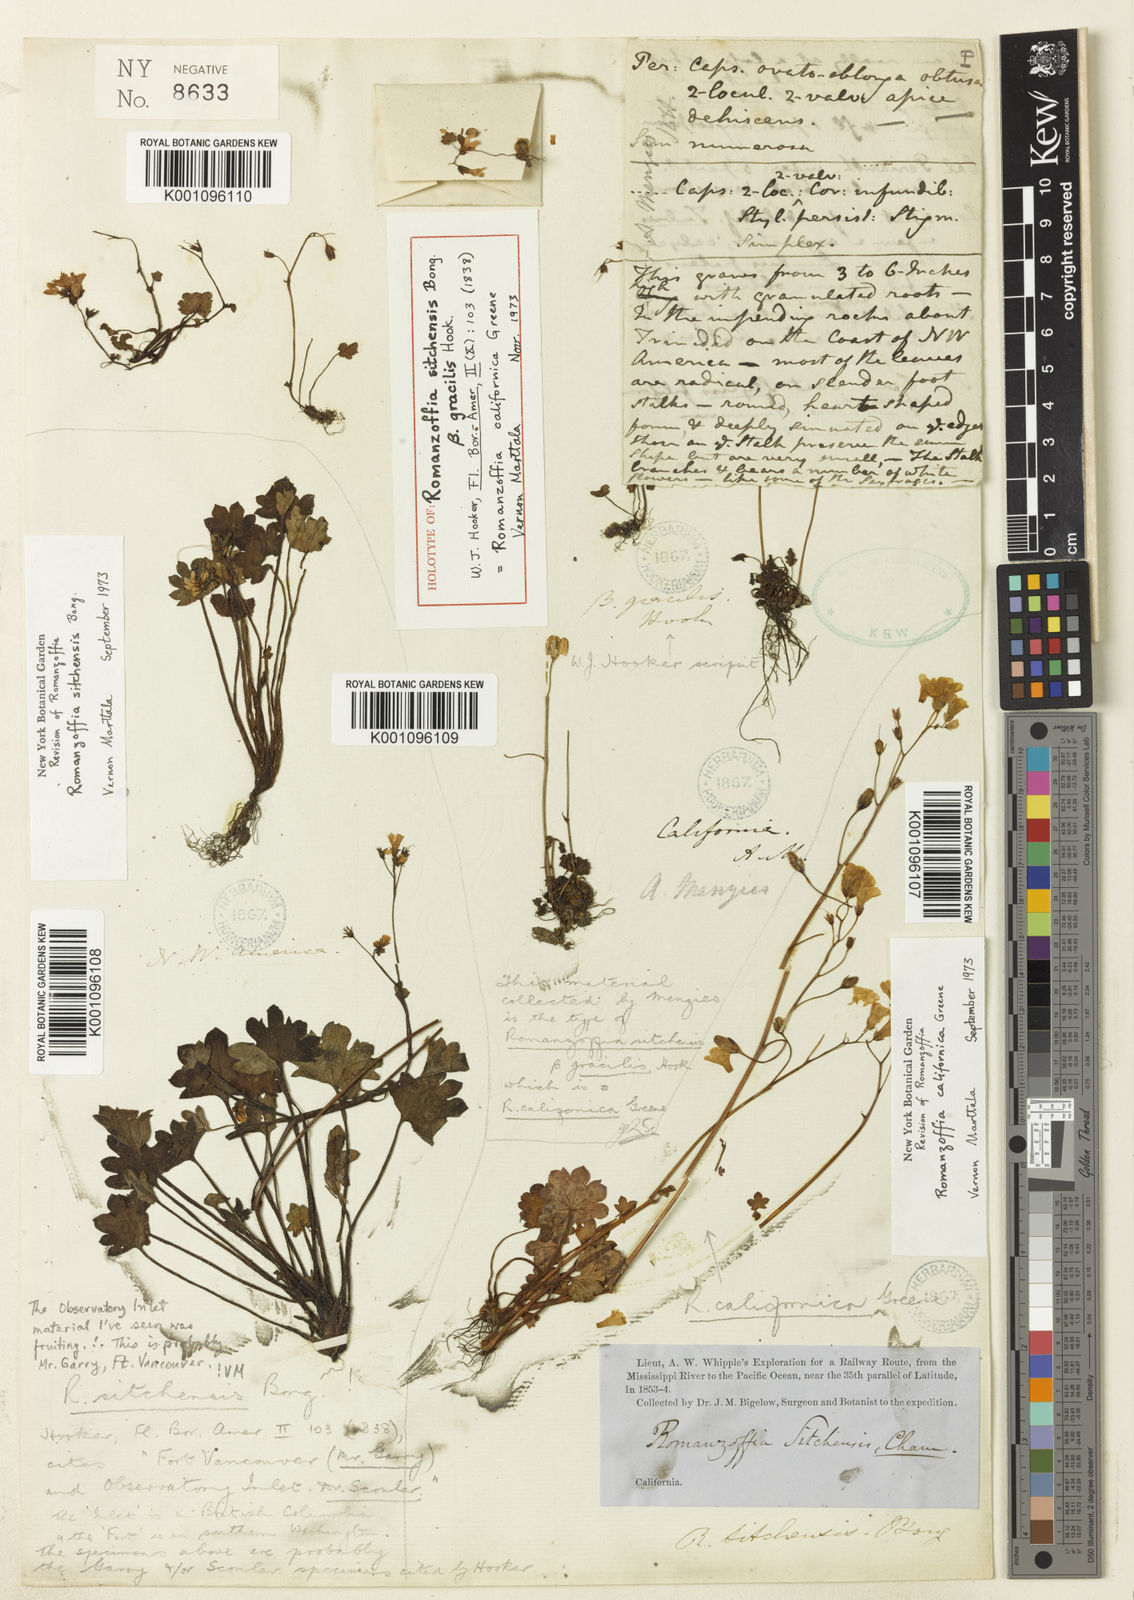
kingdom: Plantae
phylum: Tracheophyta
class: Magnoliopsida
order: Boraginales
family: Hydrophyllaceae
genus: Romanzoffia
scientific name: Romanzoffia sitchensis
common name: Sitka mistmaid
